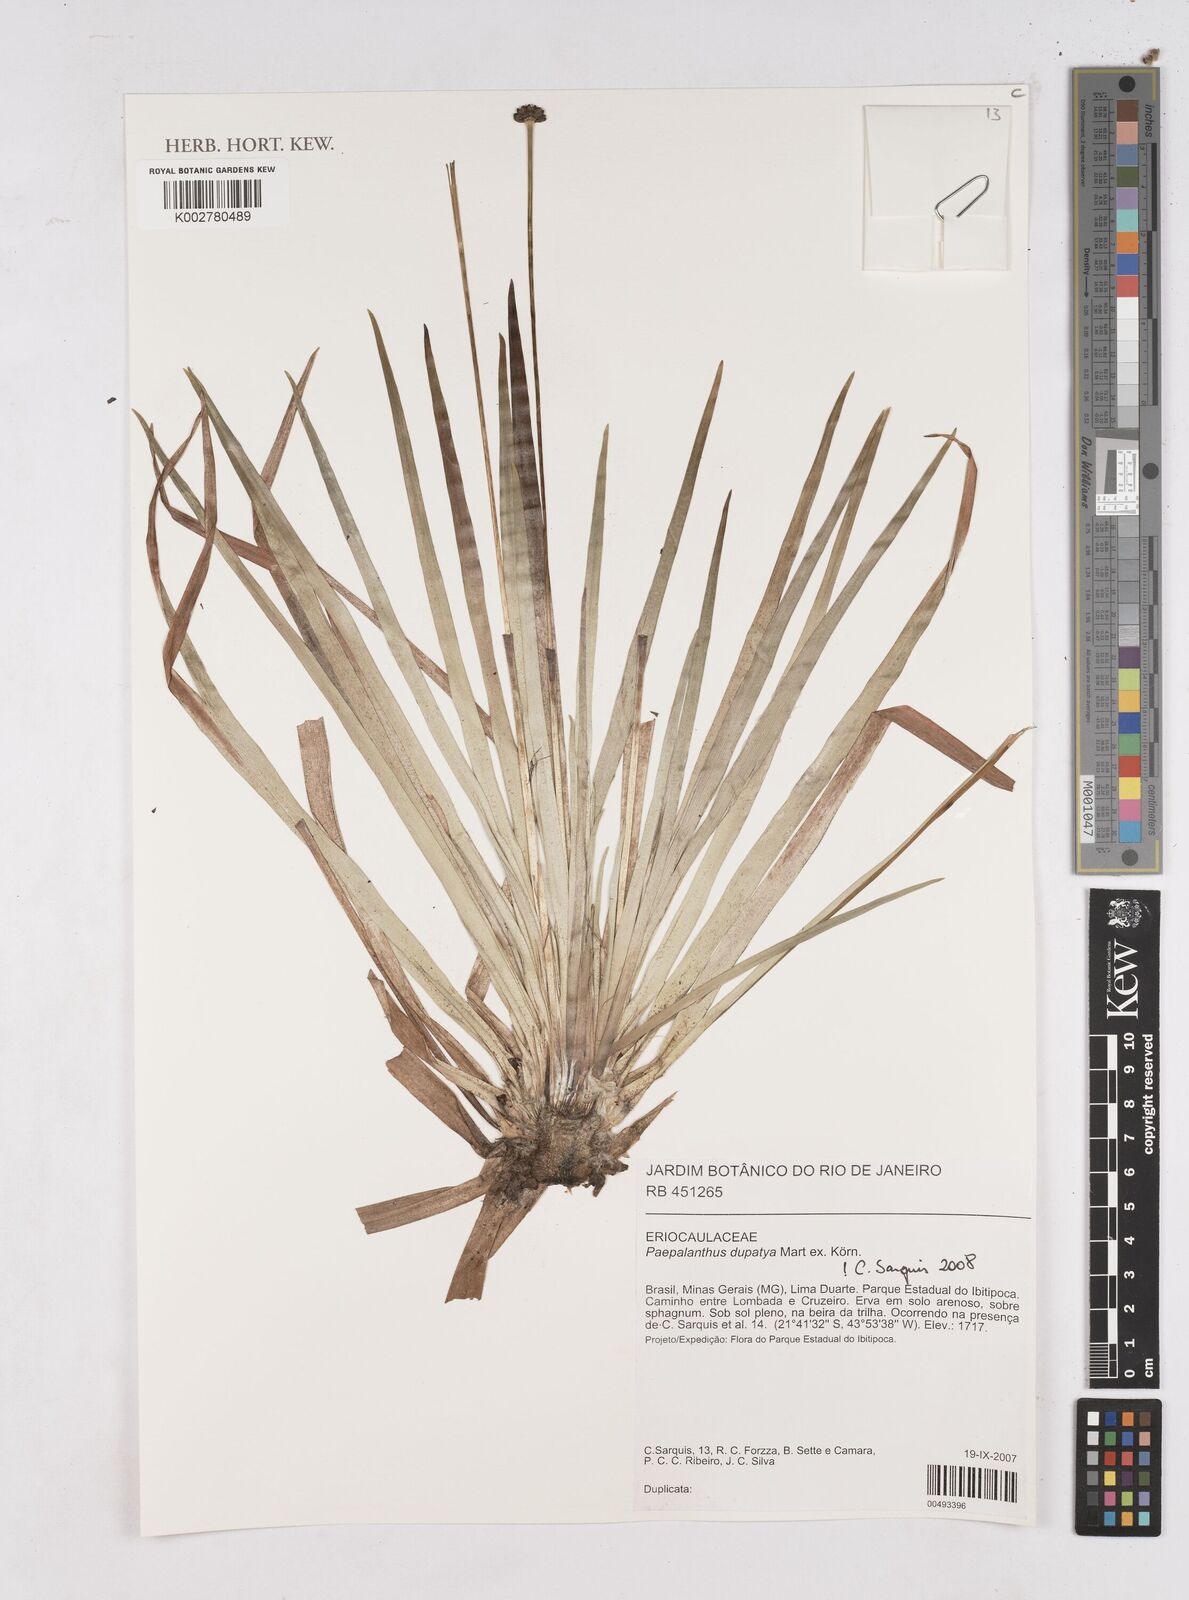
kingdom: Plantae
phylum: Tracheophyta
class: Liliopsida
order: Poales
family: Eriocaulaceae
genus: Paepalanthus
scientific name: Paepalanthus
